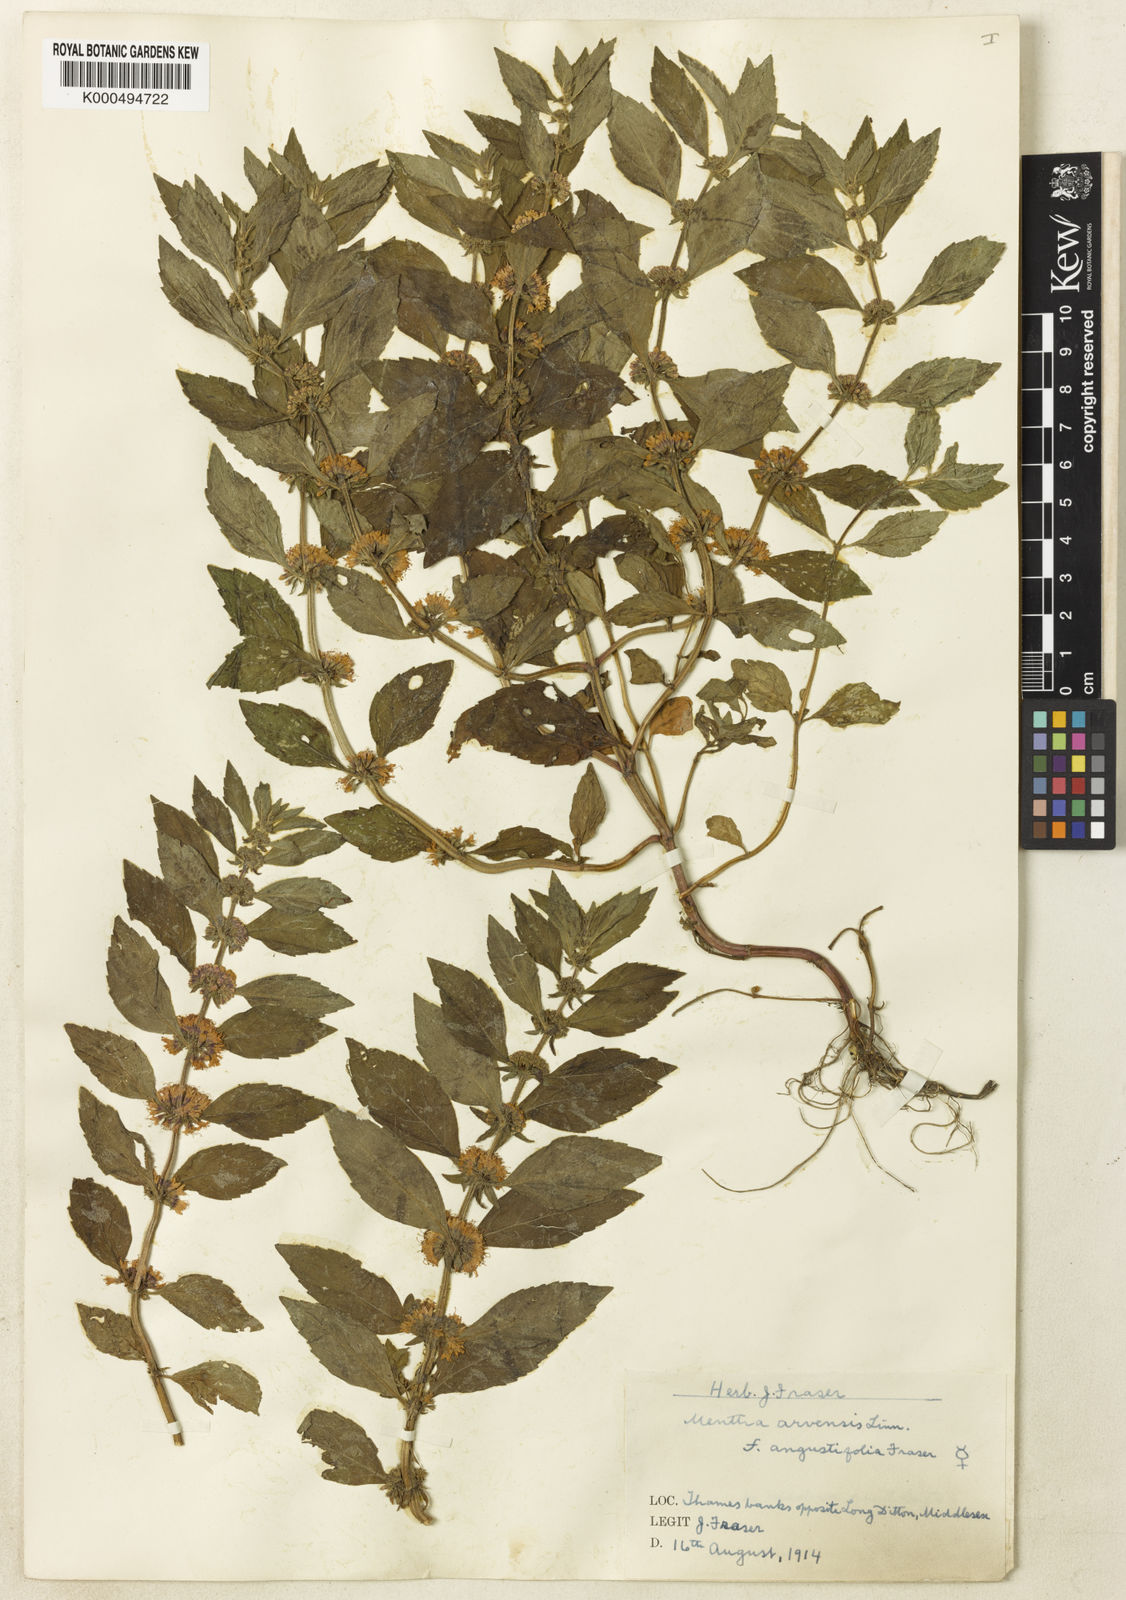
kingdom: Plantae
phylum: Tracheophyta
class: Magnoliopsida
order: Lamiales
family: Lamiaceae
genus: Mentha
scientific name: Mentha arvensis
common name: Corn mint
